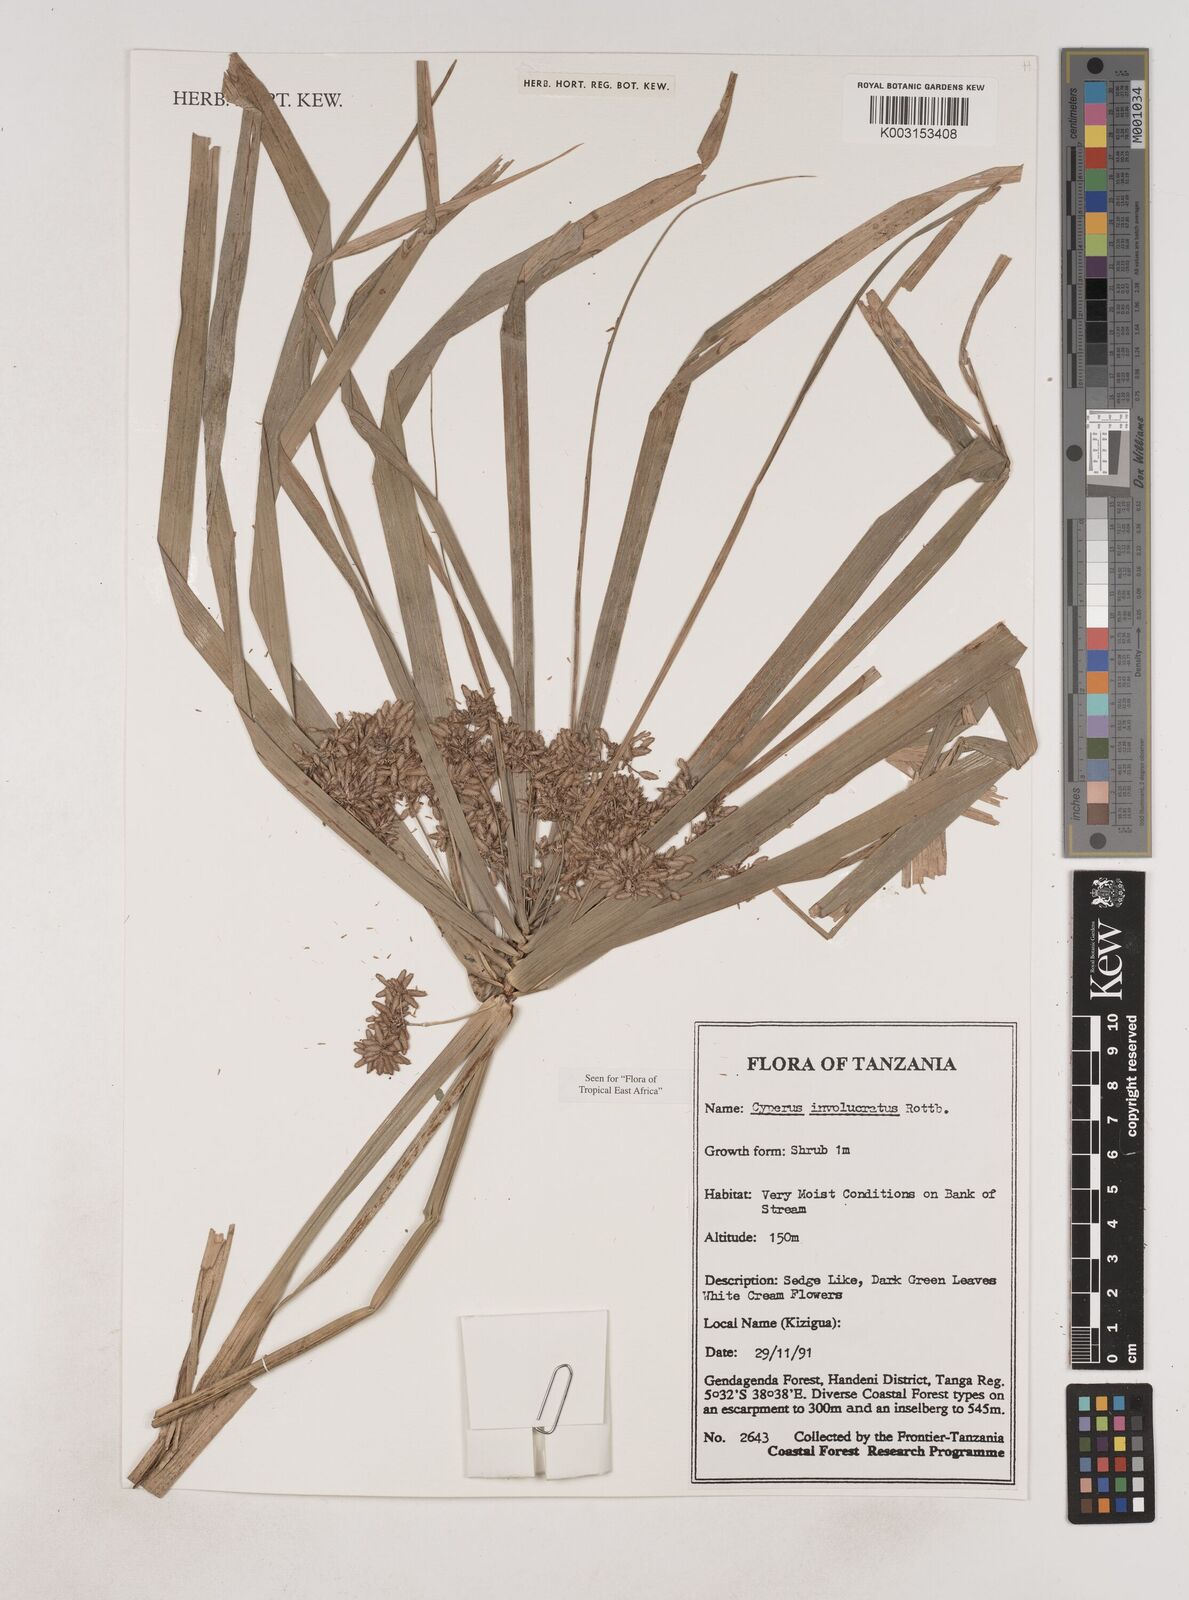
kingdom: Plantae
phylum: Tracheophyta
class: Liliopsida
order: Poales
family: Cyperaceae
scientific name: Cyperaceae
